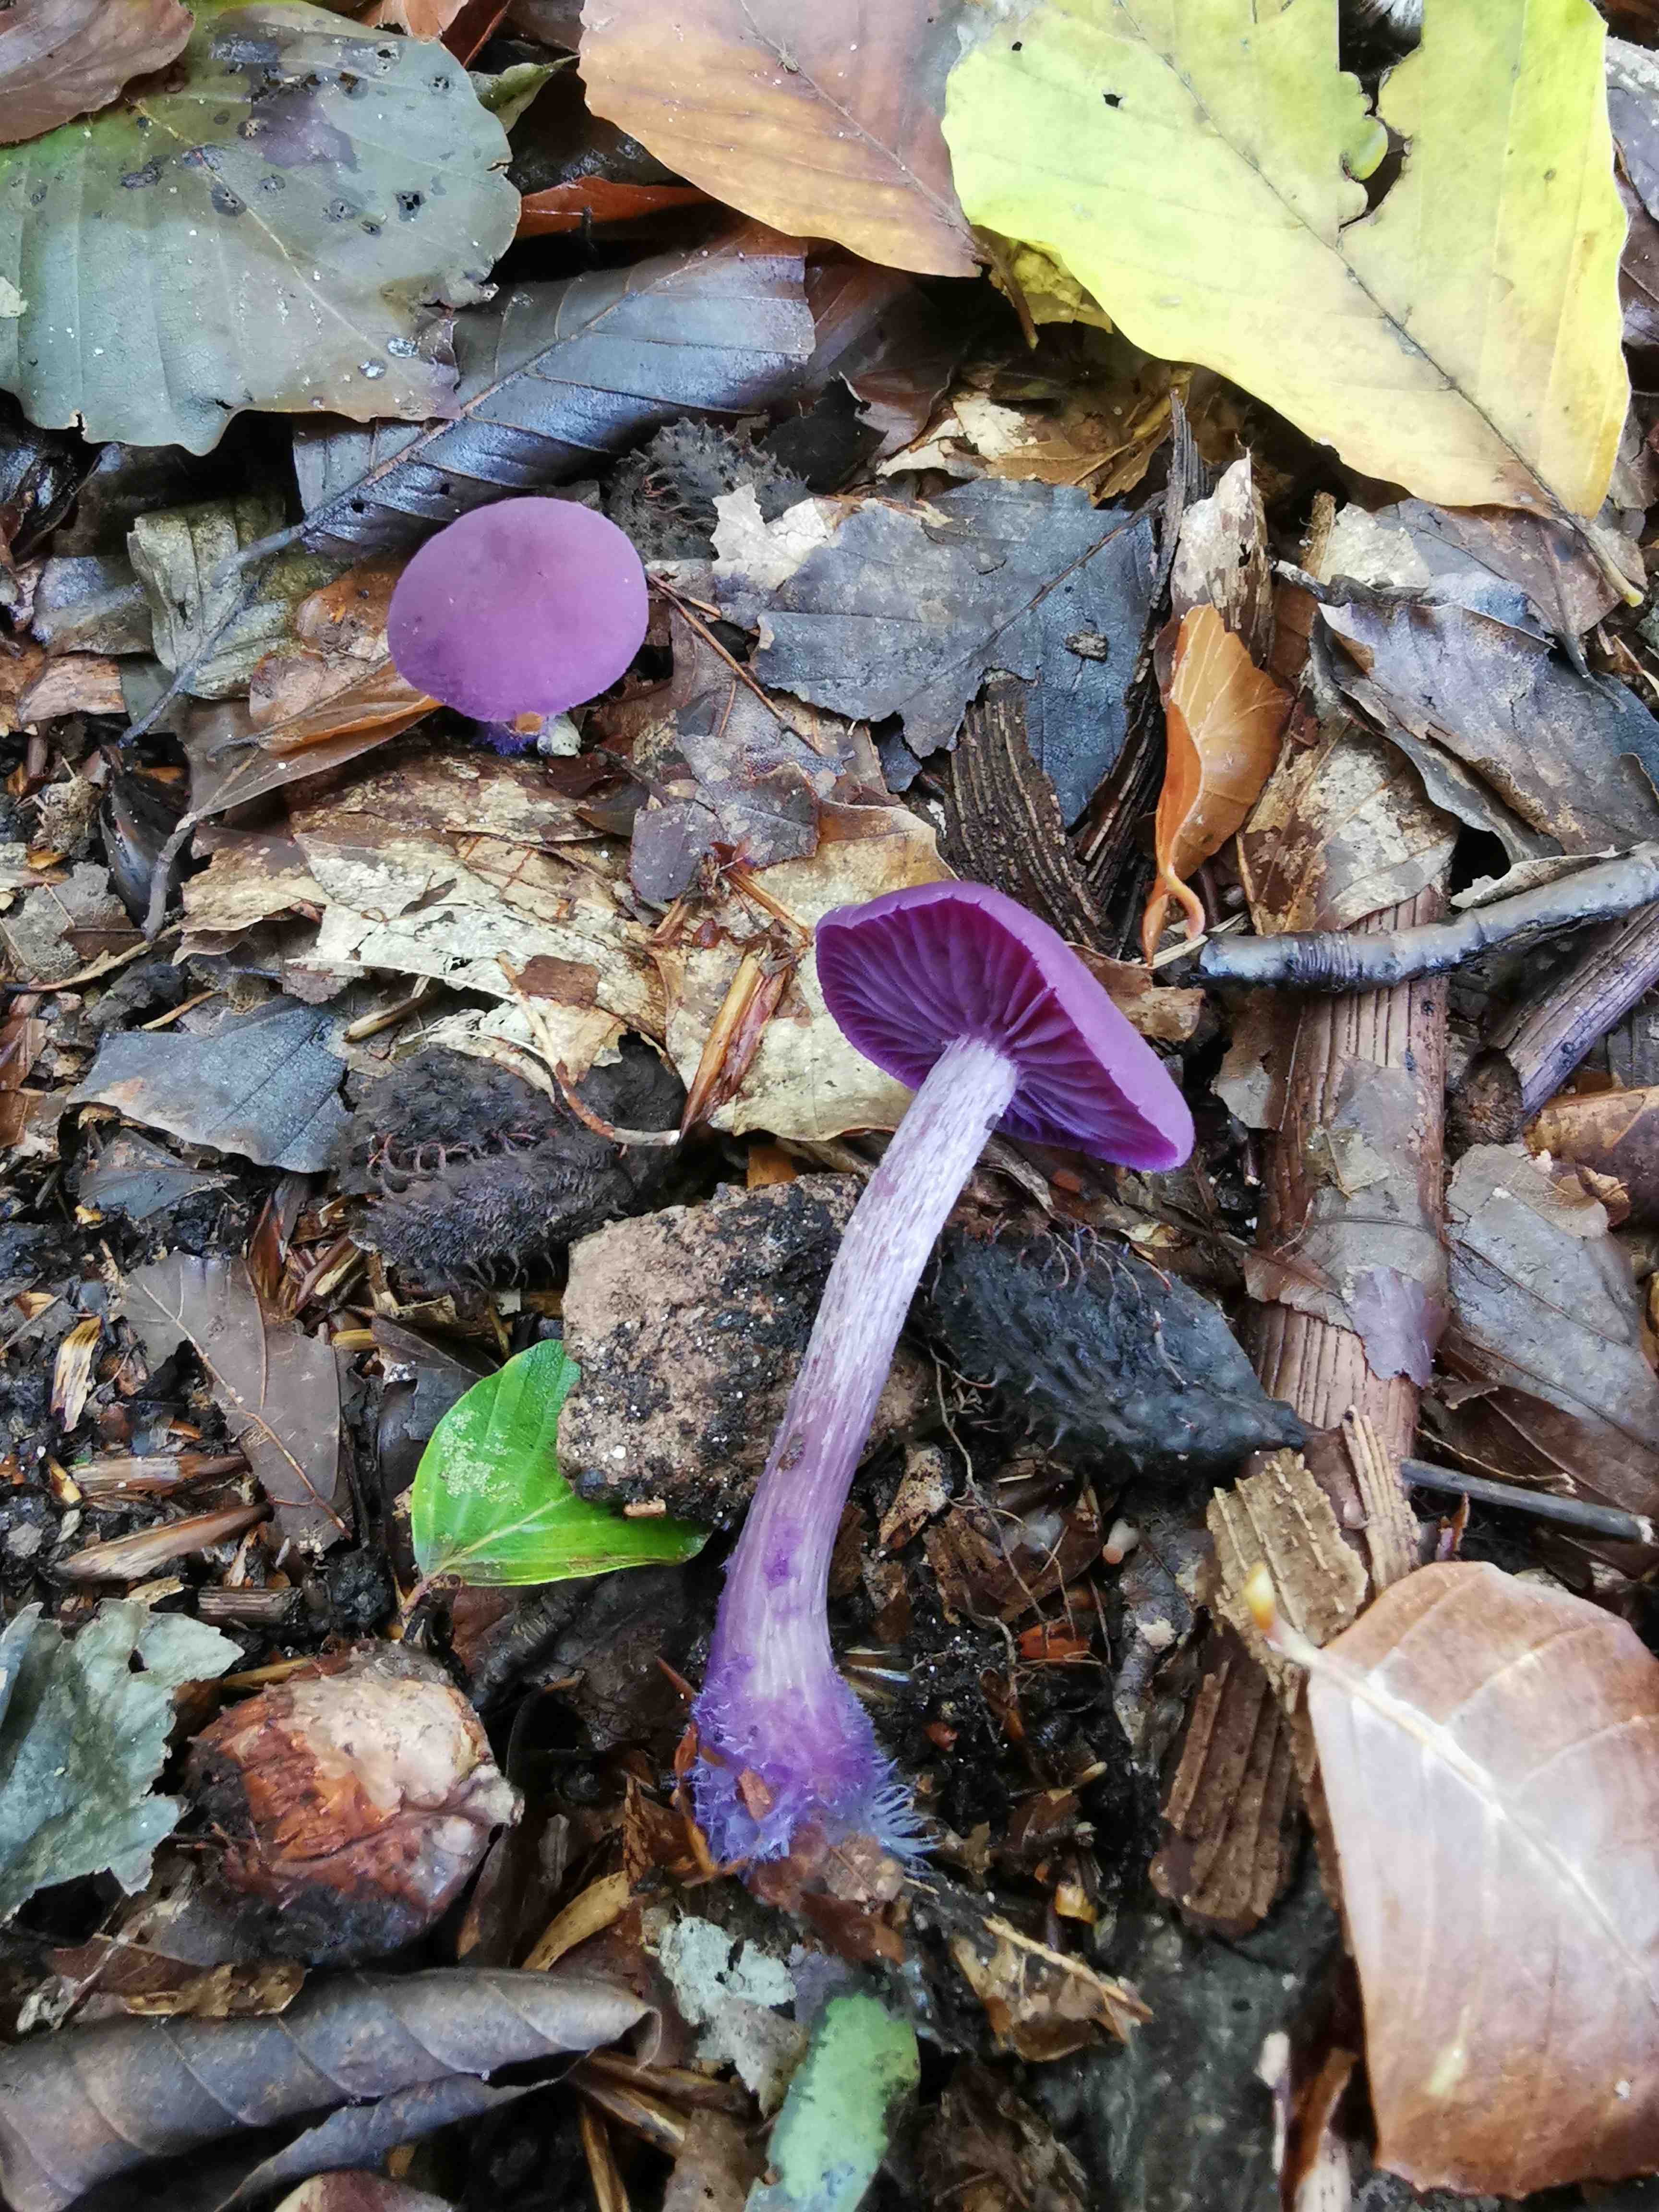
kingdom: Fungi
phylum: Basidiomycota
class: Agaricomycetes
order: Agaricales
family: Hydnangiaceae
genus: Laccaria
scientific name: Laccaria amethystina
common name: violet ametysthat
